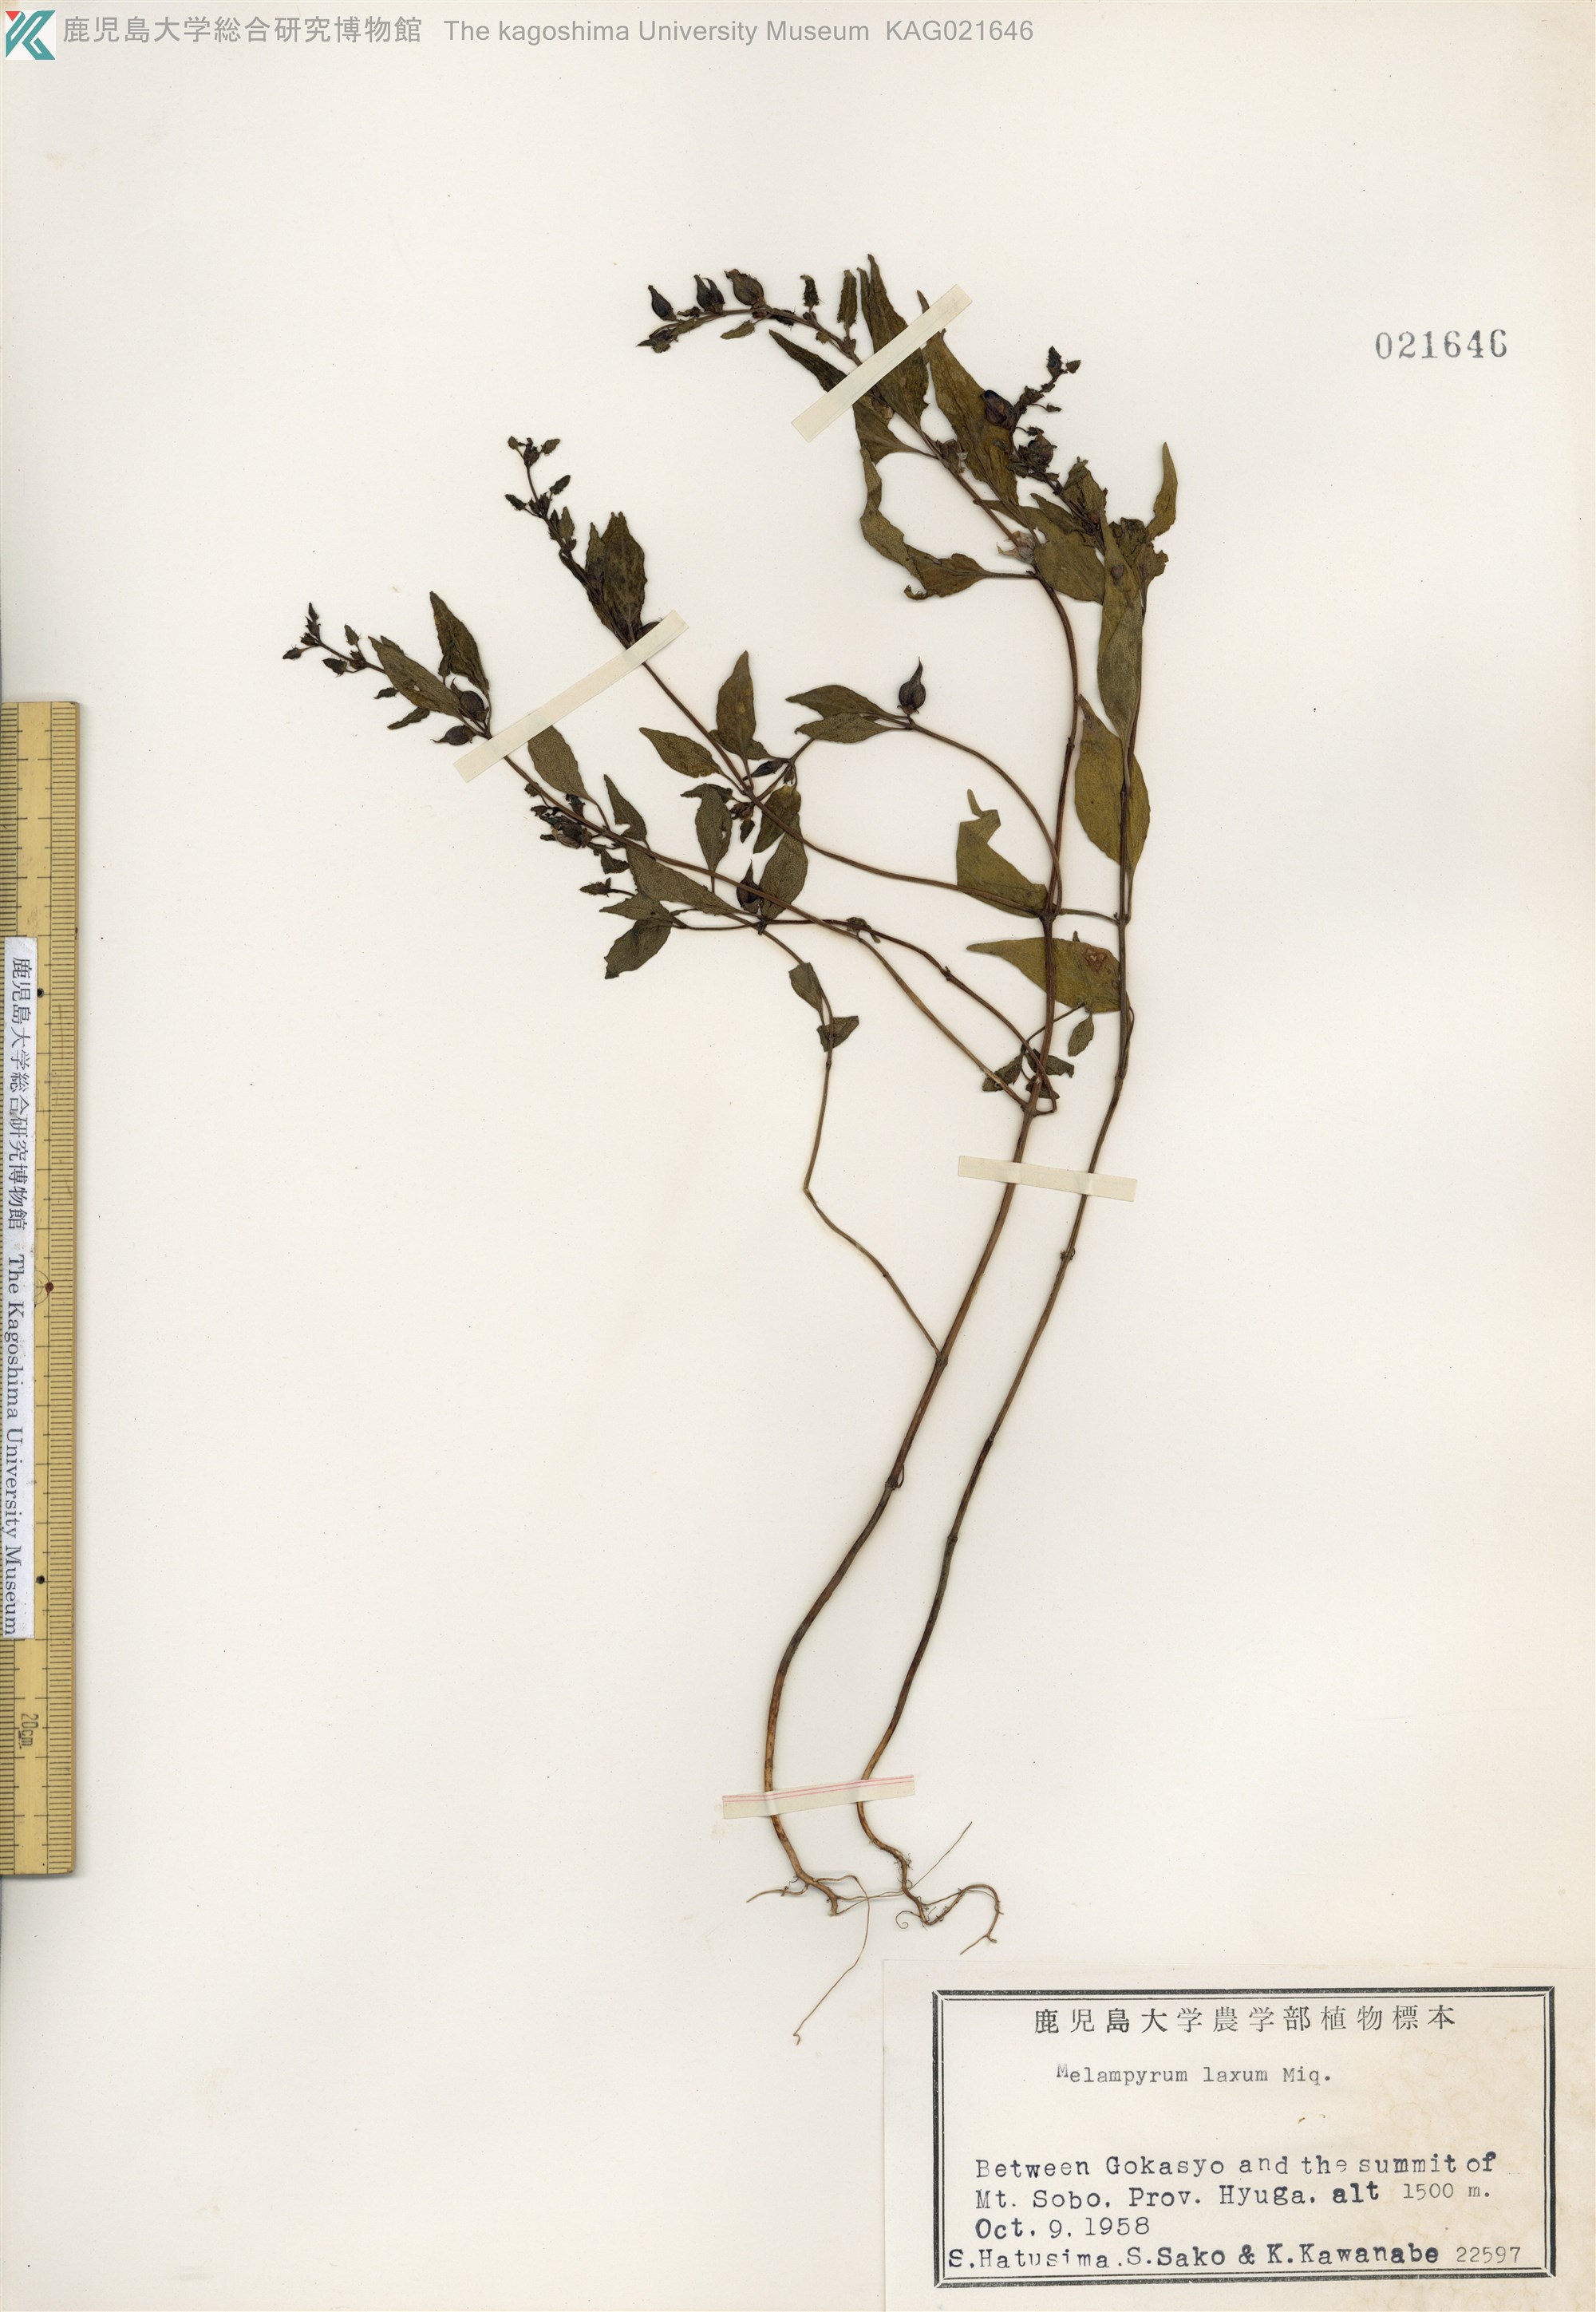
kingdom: Plantae
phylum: Tracheophyta
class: Magnoliopsida
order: Lamiales
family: Orobanchaceae
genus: Melampyrum
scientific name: Melampyrum laxum
